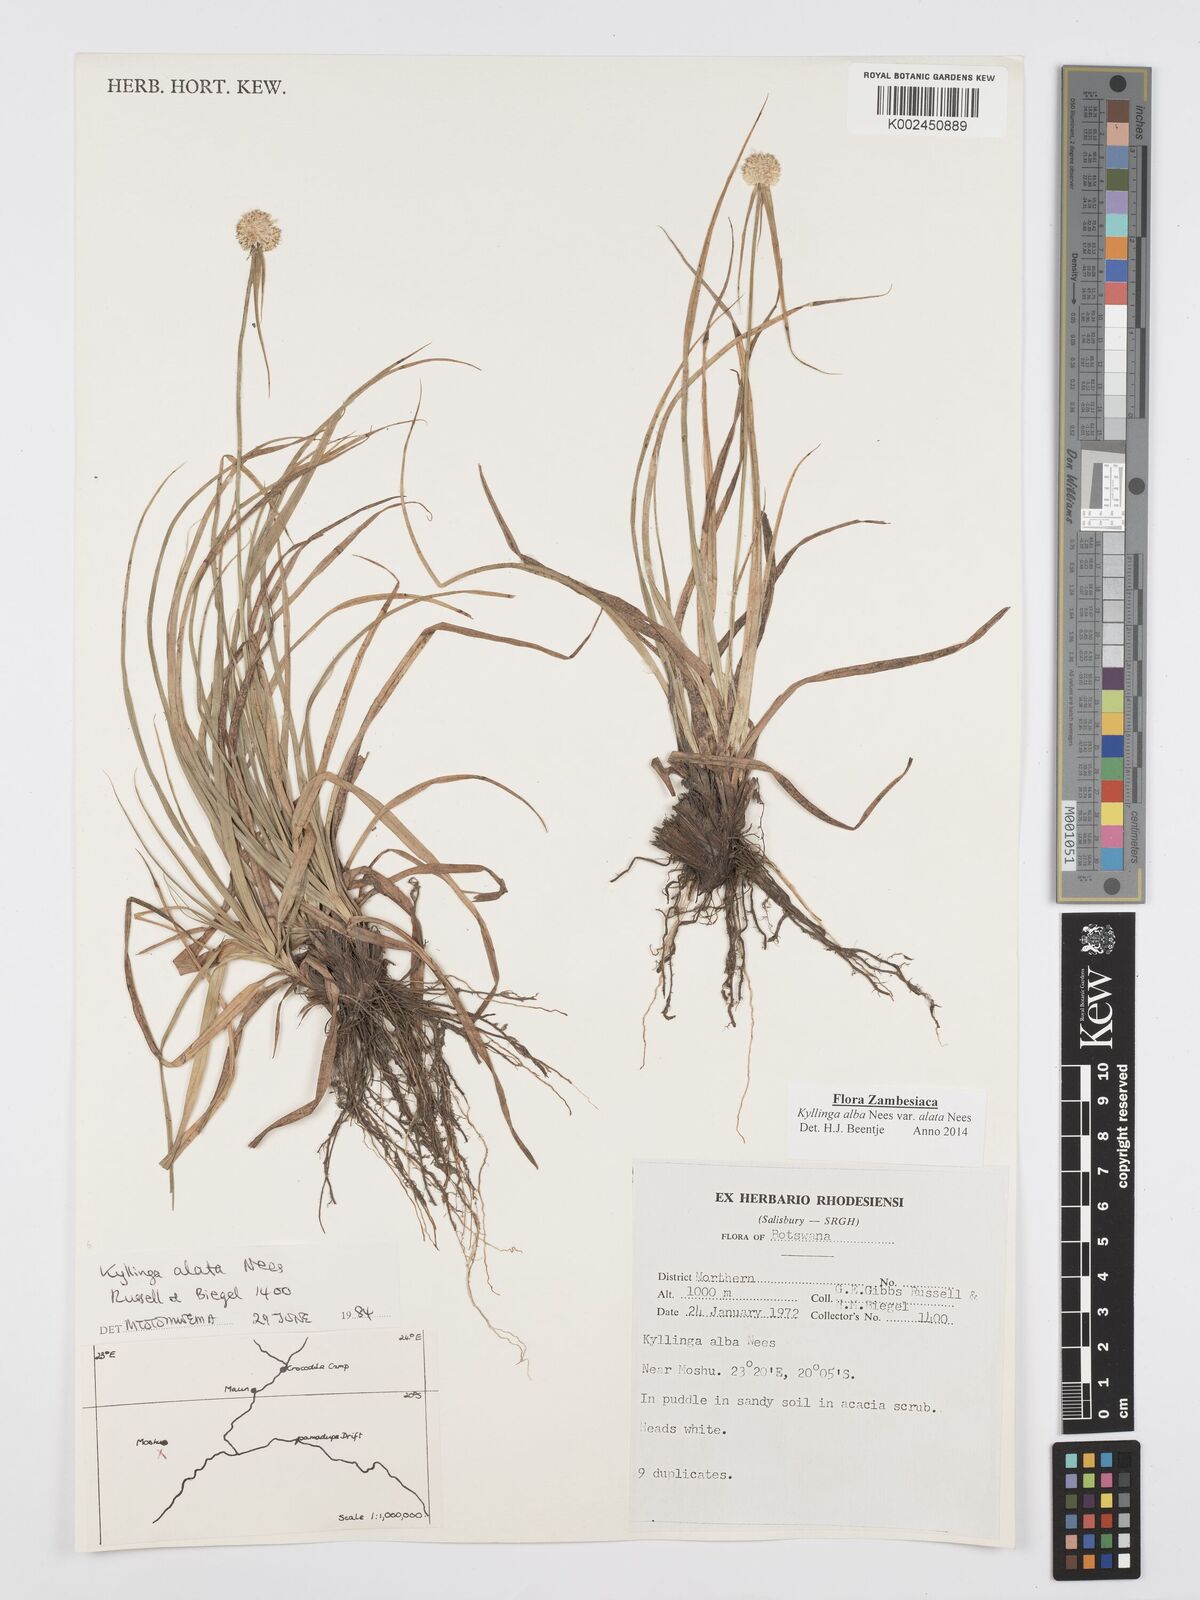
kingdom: Plantae
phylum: Tracheophyta
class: Liliopsida
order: Poales
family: Cyperaceae
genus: Cyperus
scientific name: Cyperus alatus
